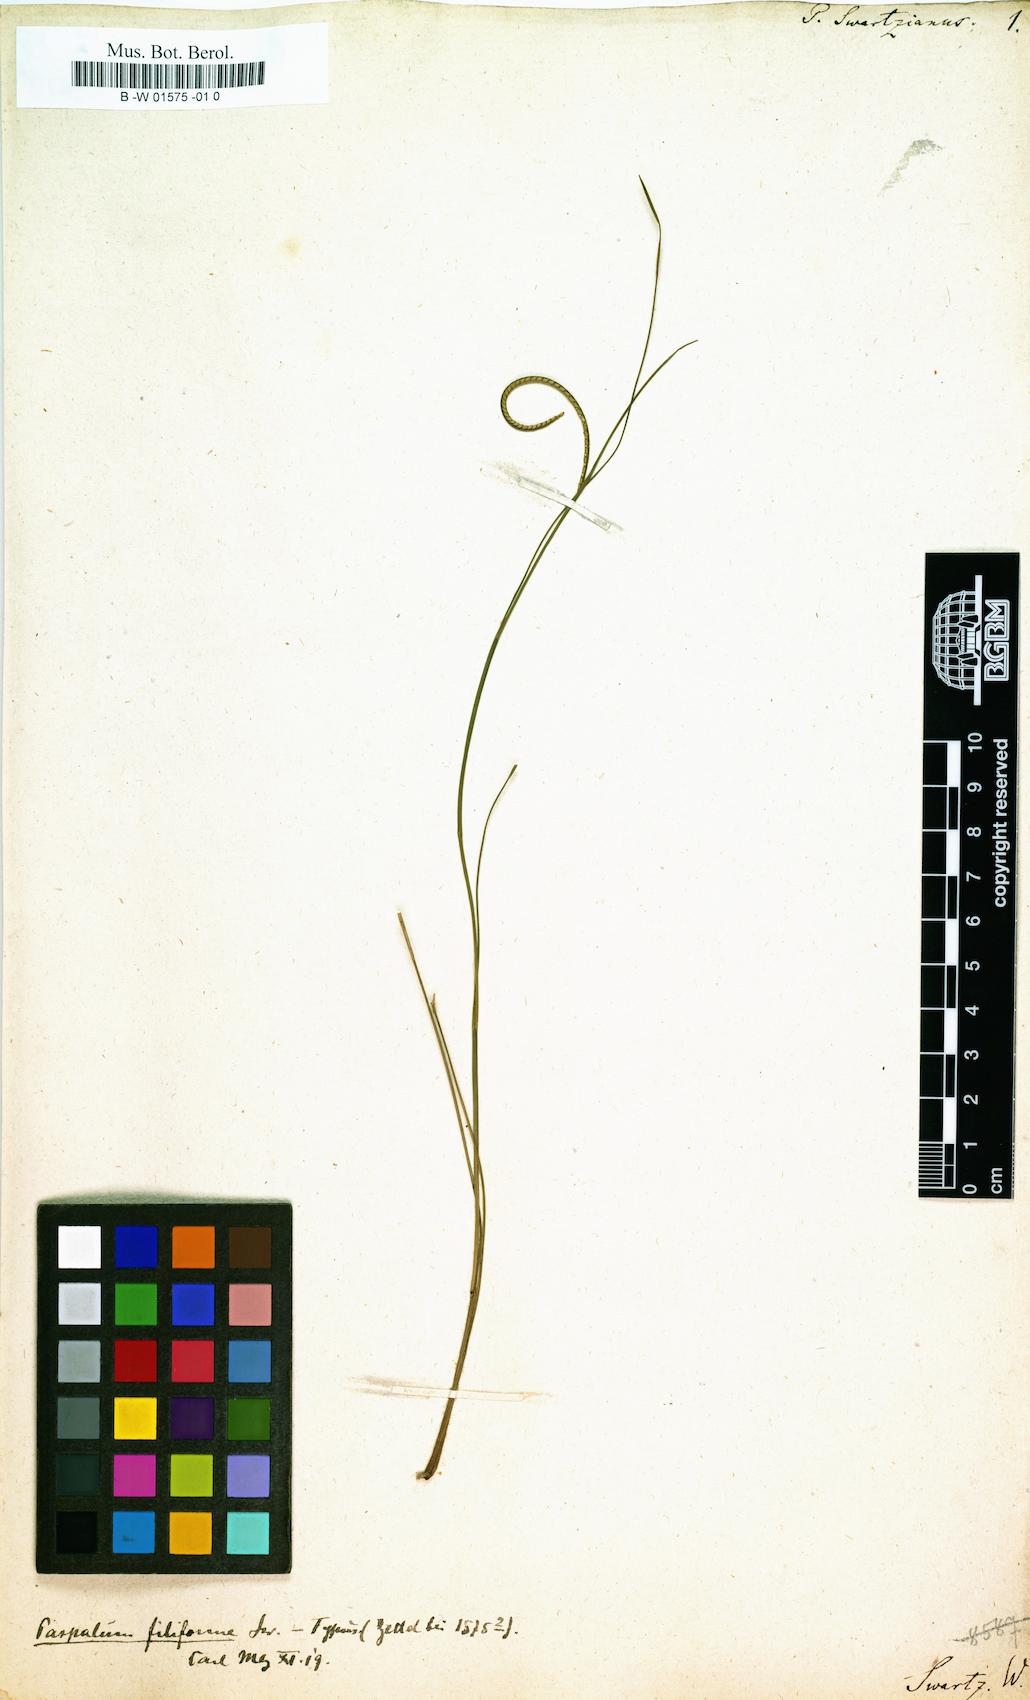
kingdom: Plantae
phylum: Tracheophyta
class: Liliopsida
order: Poales
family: Poaceae
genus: Paspalus
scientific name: Paspalus
